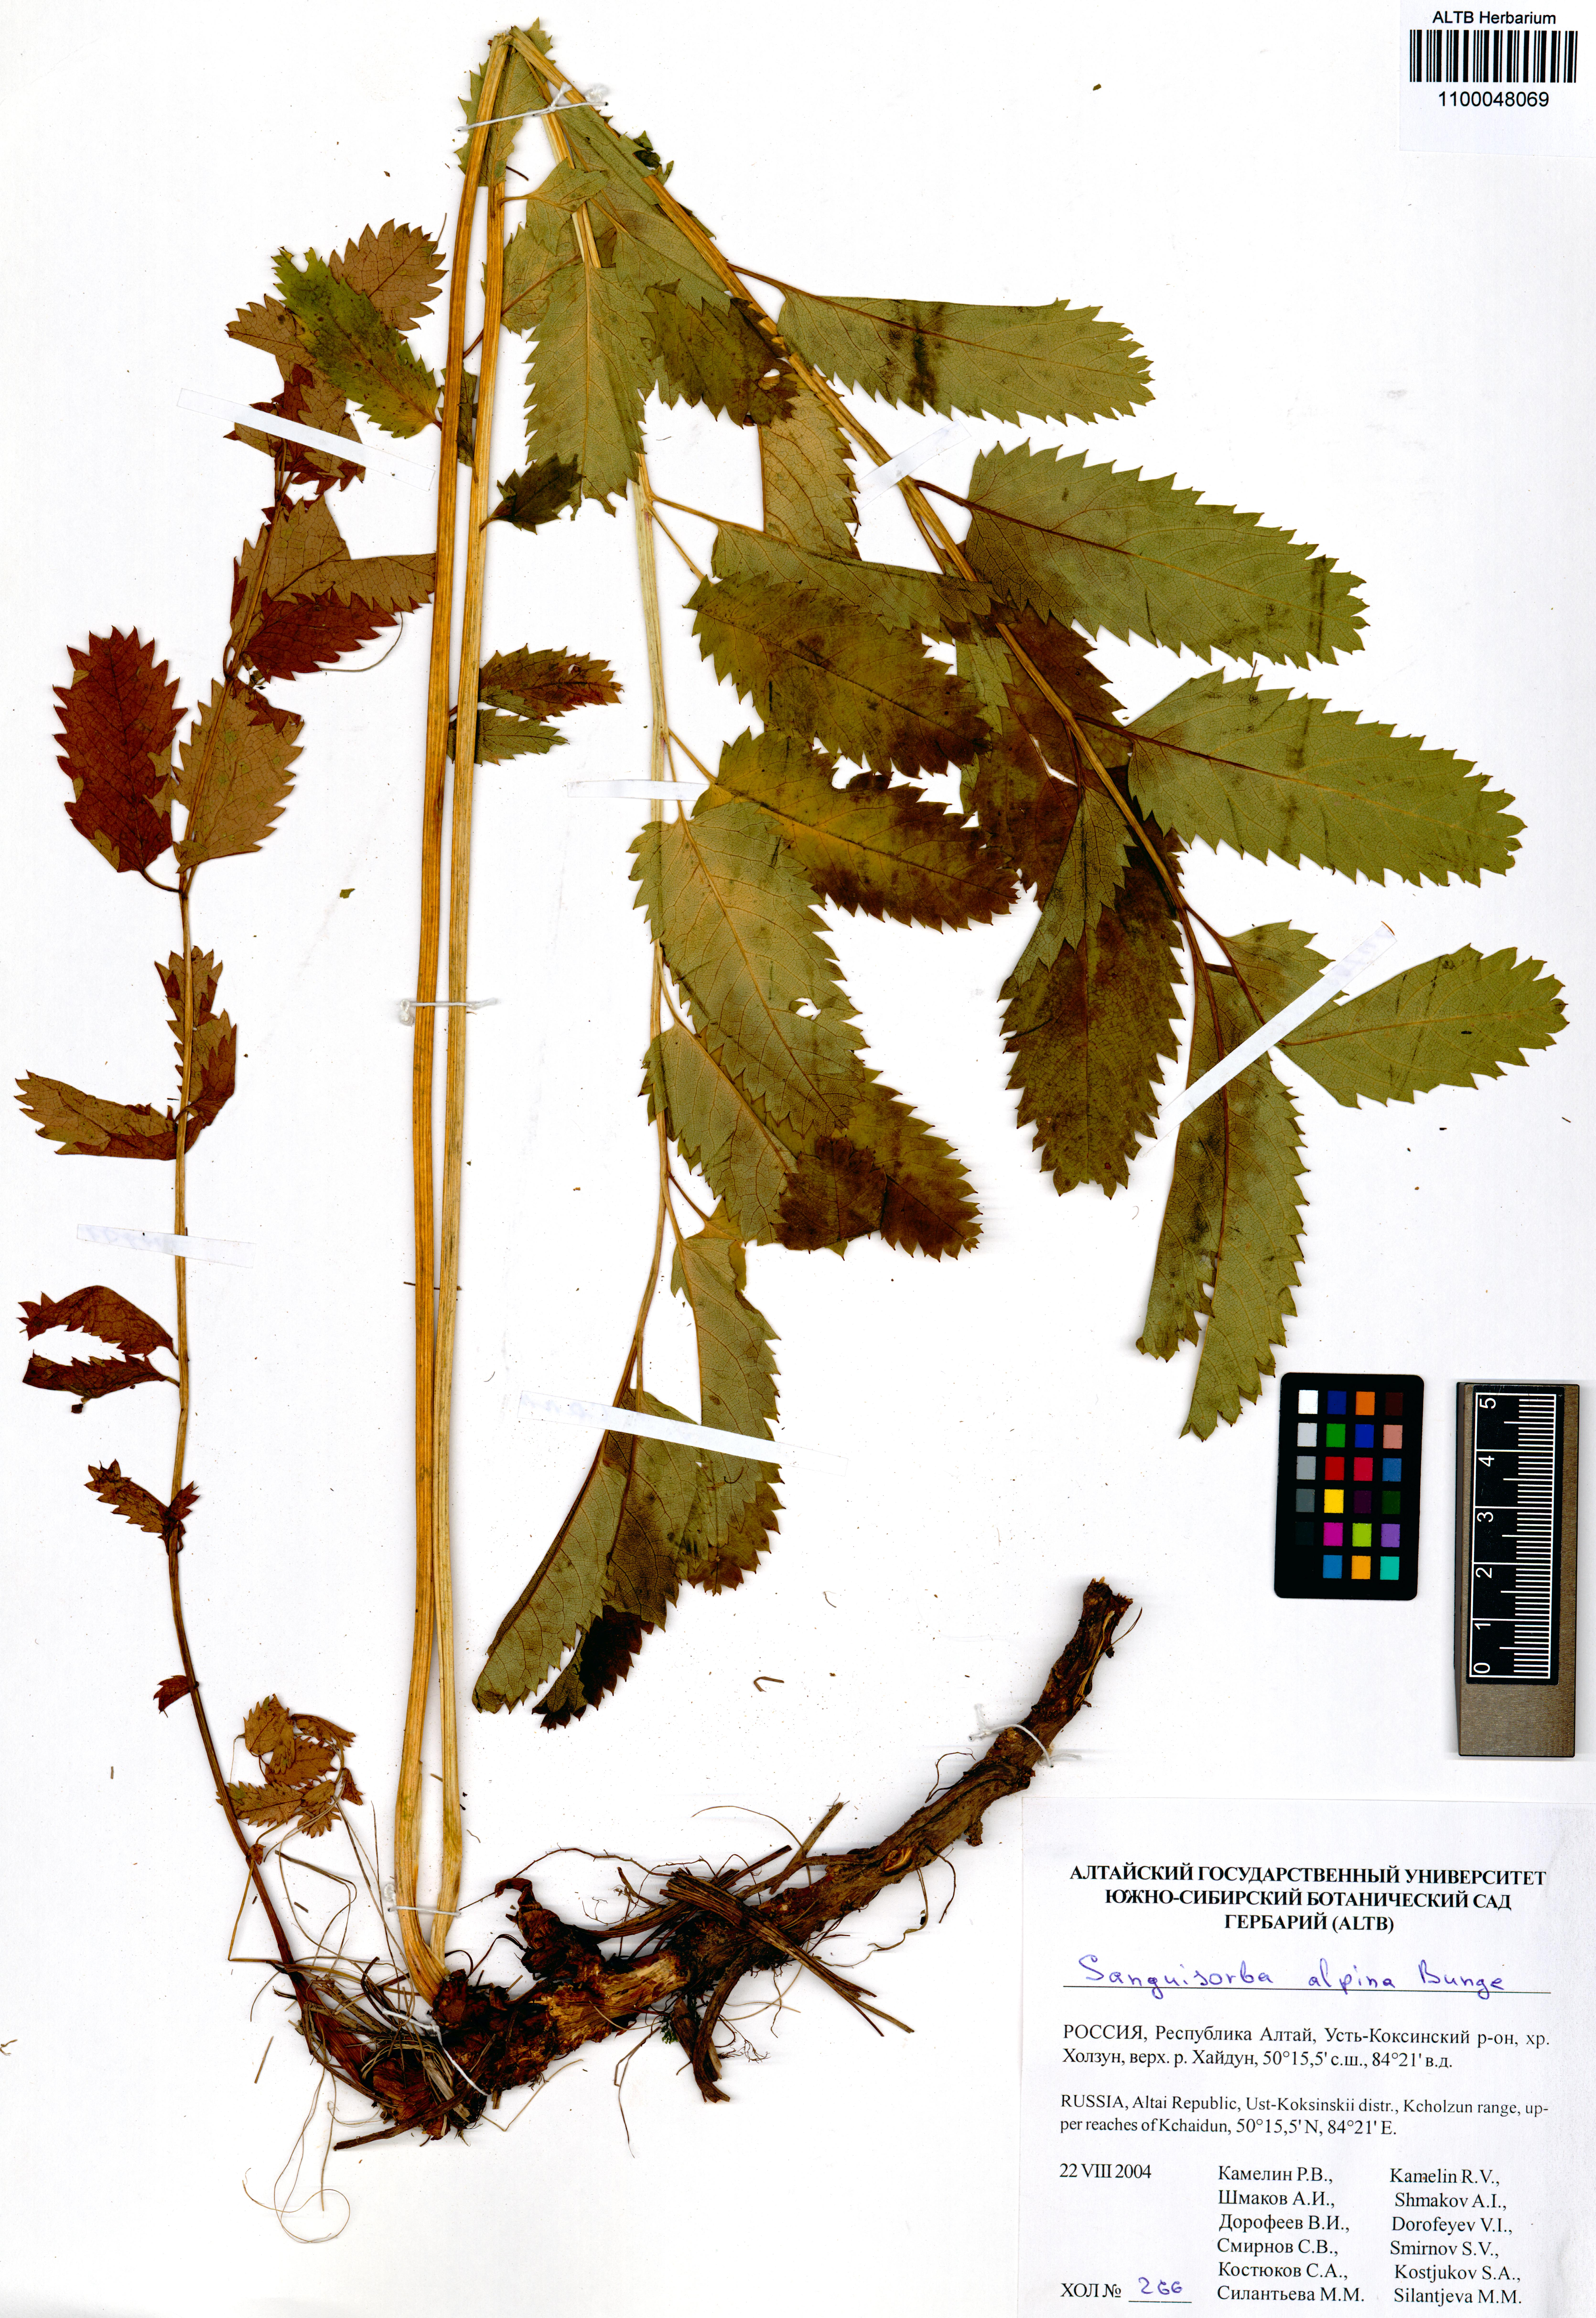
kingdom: Plantae
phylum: Tracheophyta
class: Magnoliopsida
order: Rosales
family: Rosaceae
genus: Sanguisorba
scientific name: Sanguisorba alpina
